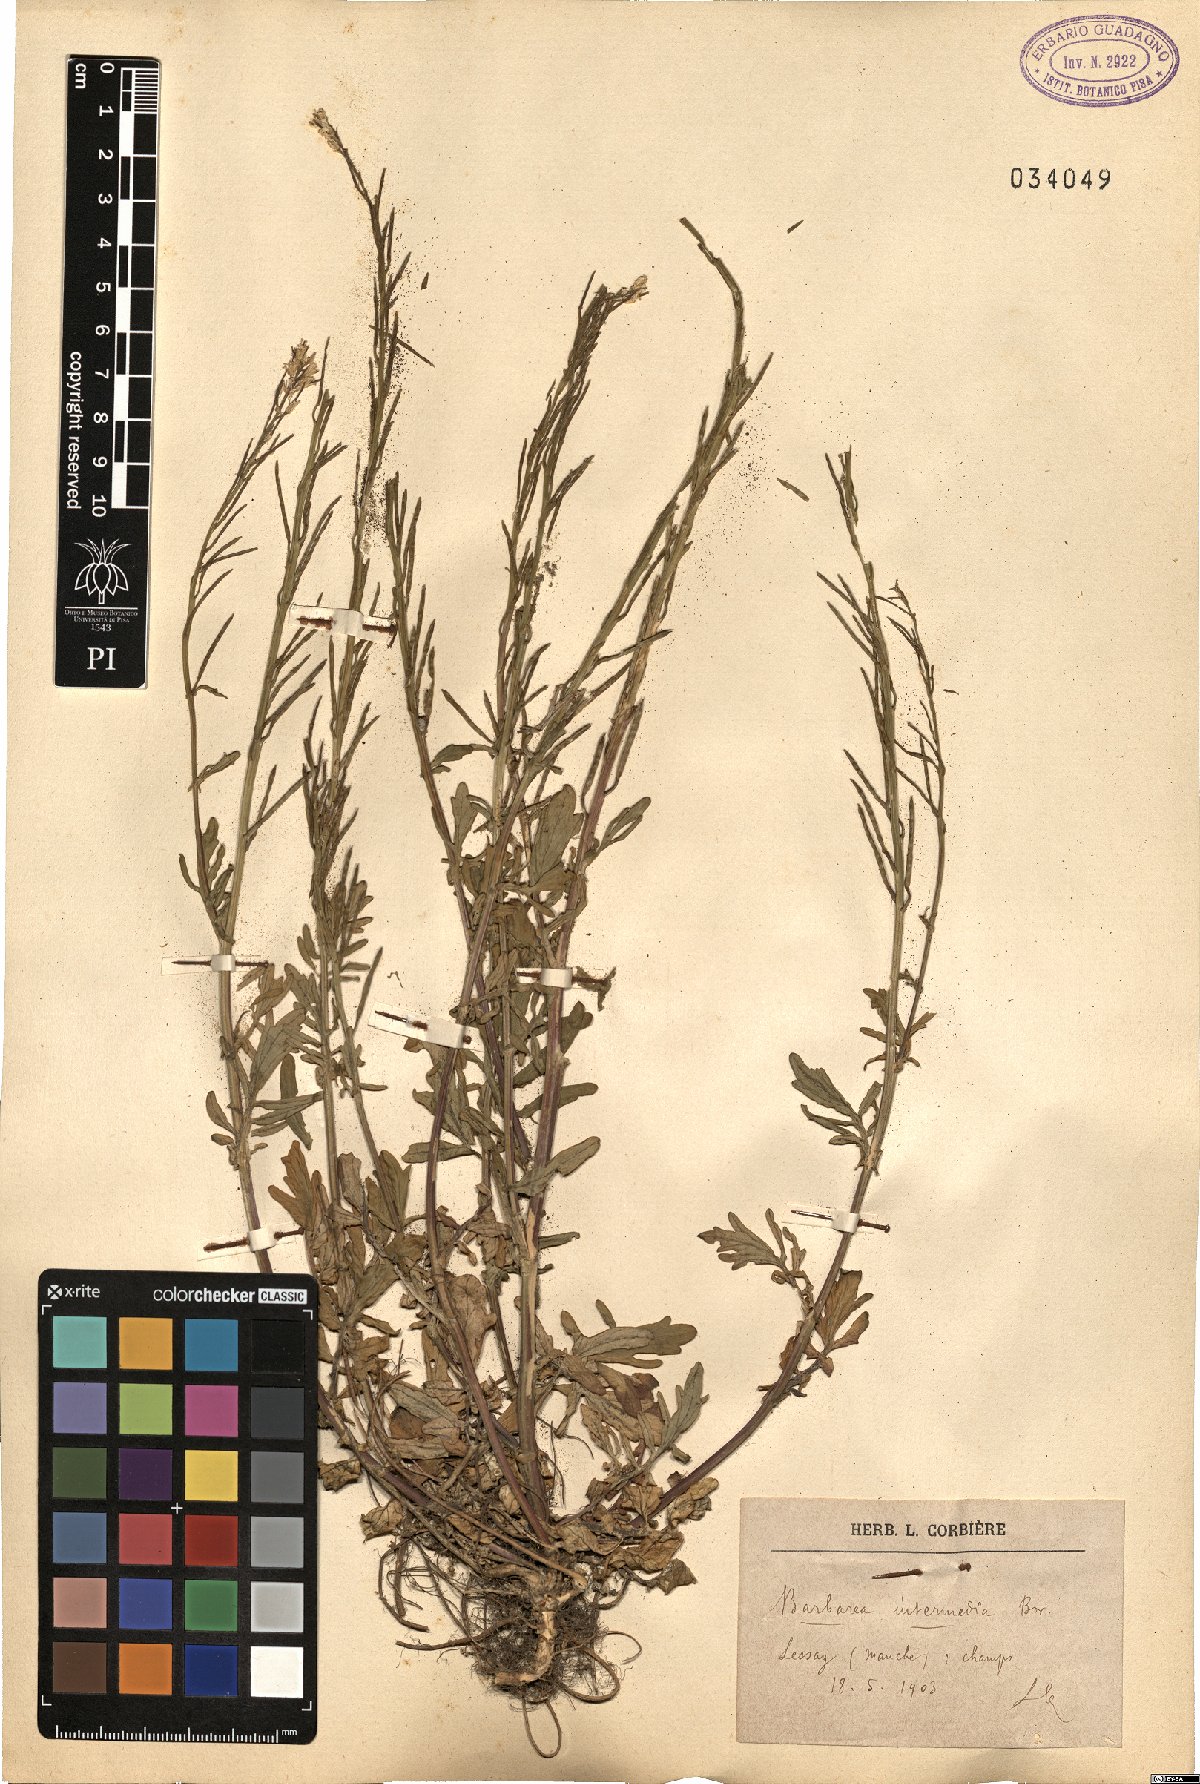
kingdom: Plantae
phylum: Tracheophyta
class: Magnoliopsida
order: Brassicales
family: Brassicaceae
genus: Barbarea
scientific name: Barbarea intermedia
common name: Medium-flowered winter-cress
